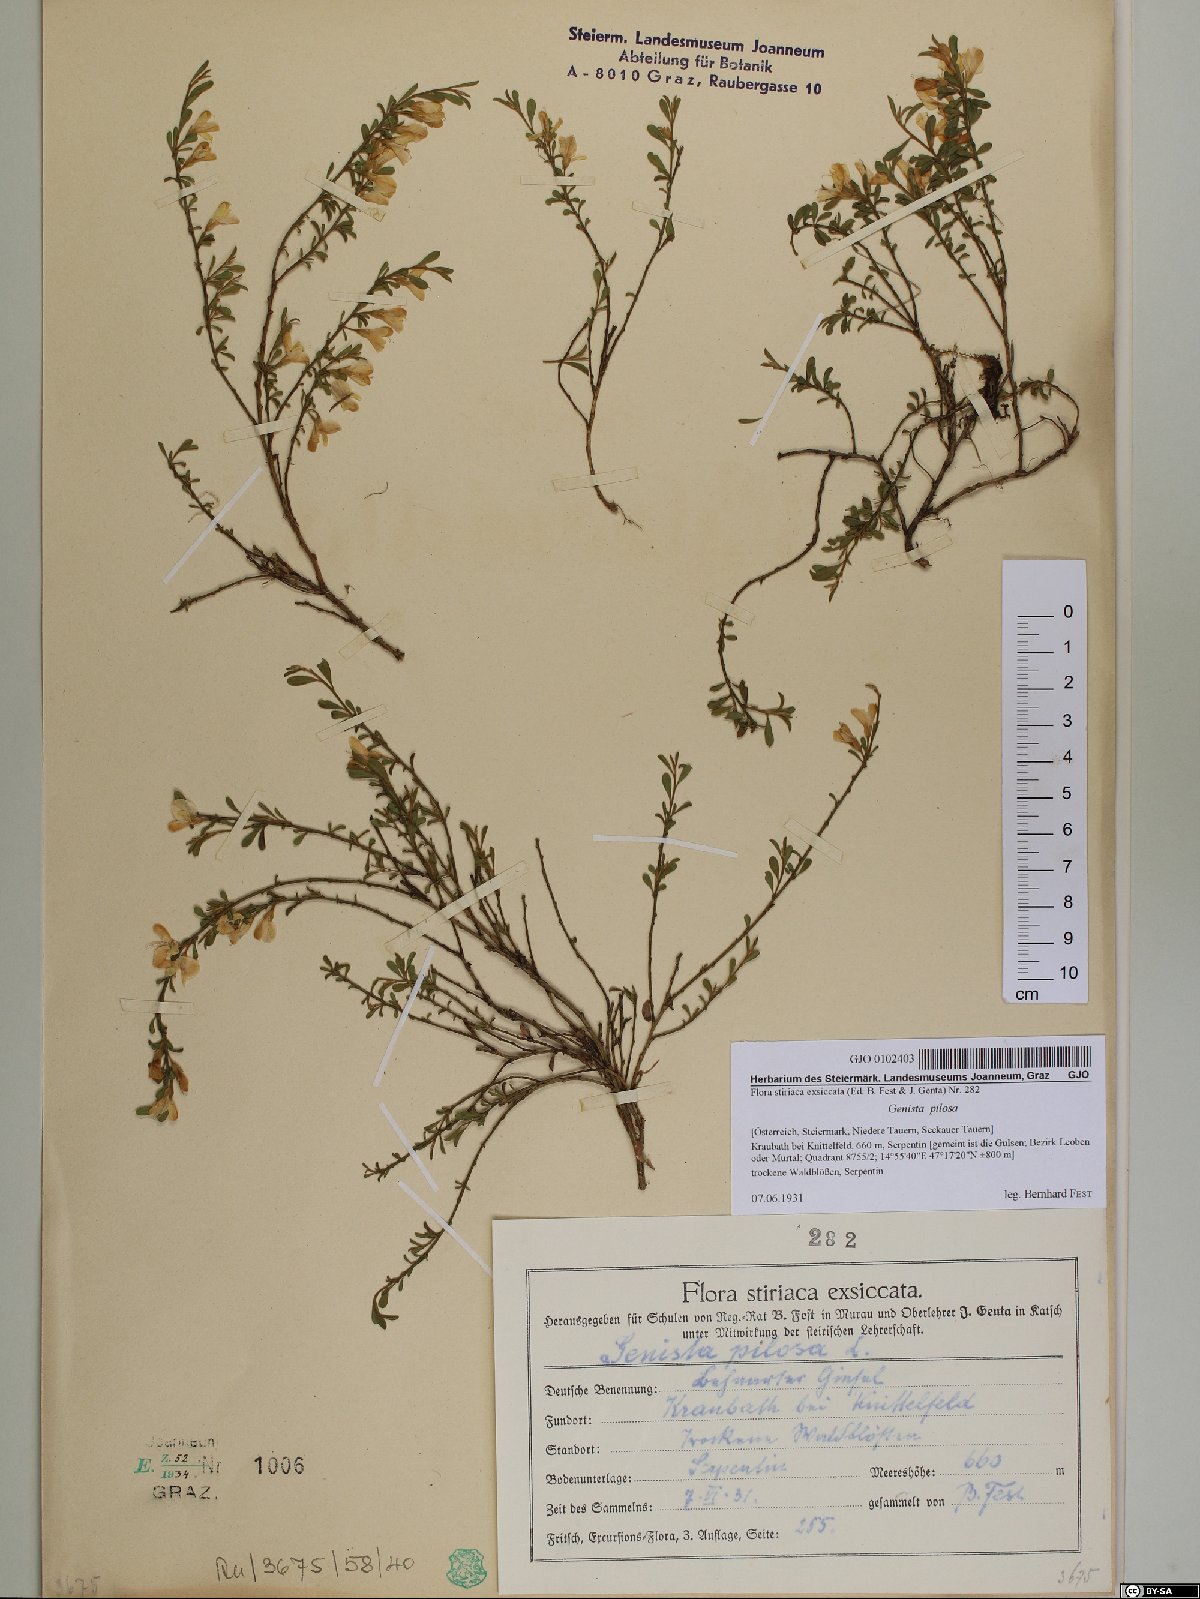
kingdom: Plantae
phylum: Tracheophyta
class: Magnoliopsida
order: Fabales
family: Fabaceae
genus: Genista
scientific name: Genista pilosa
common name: Hairy greenweed
